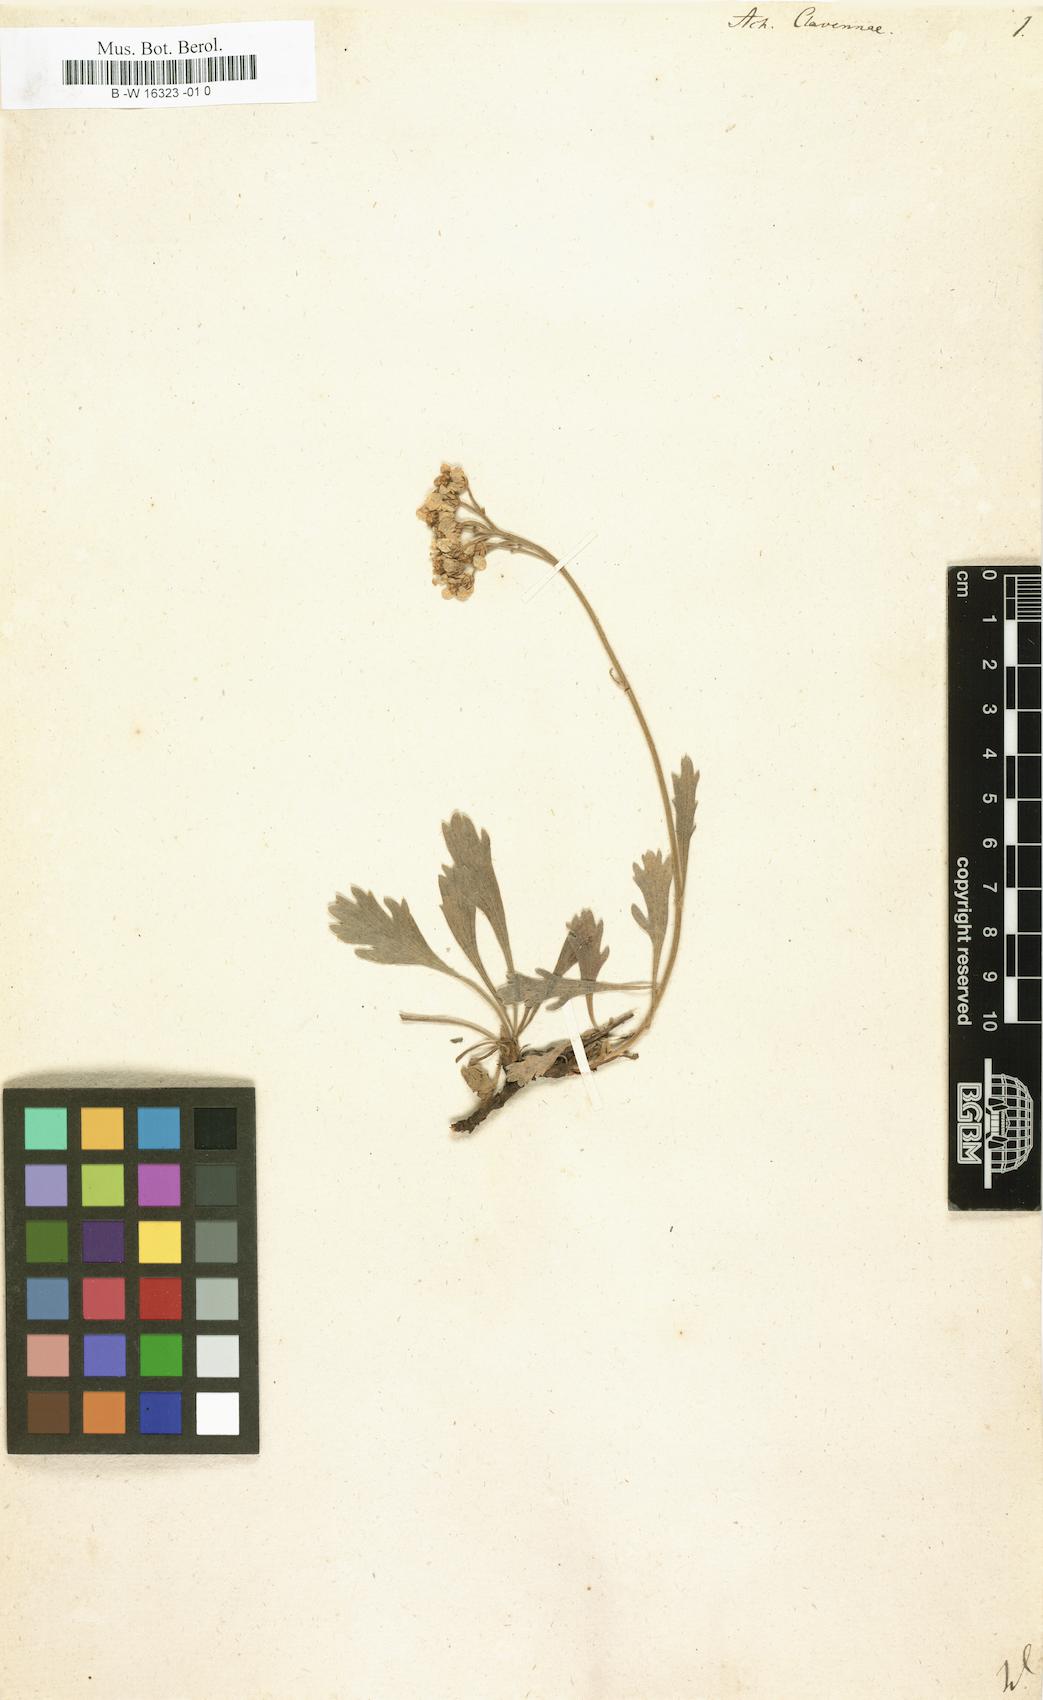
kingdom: Plantae
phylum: Tracheophyta
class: Magnoliopsida
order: Asterales
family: Asteraceae
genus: Achillea
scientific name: Achillea clavennae
